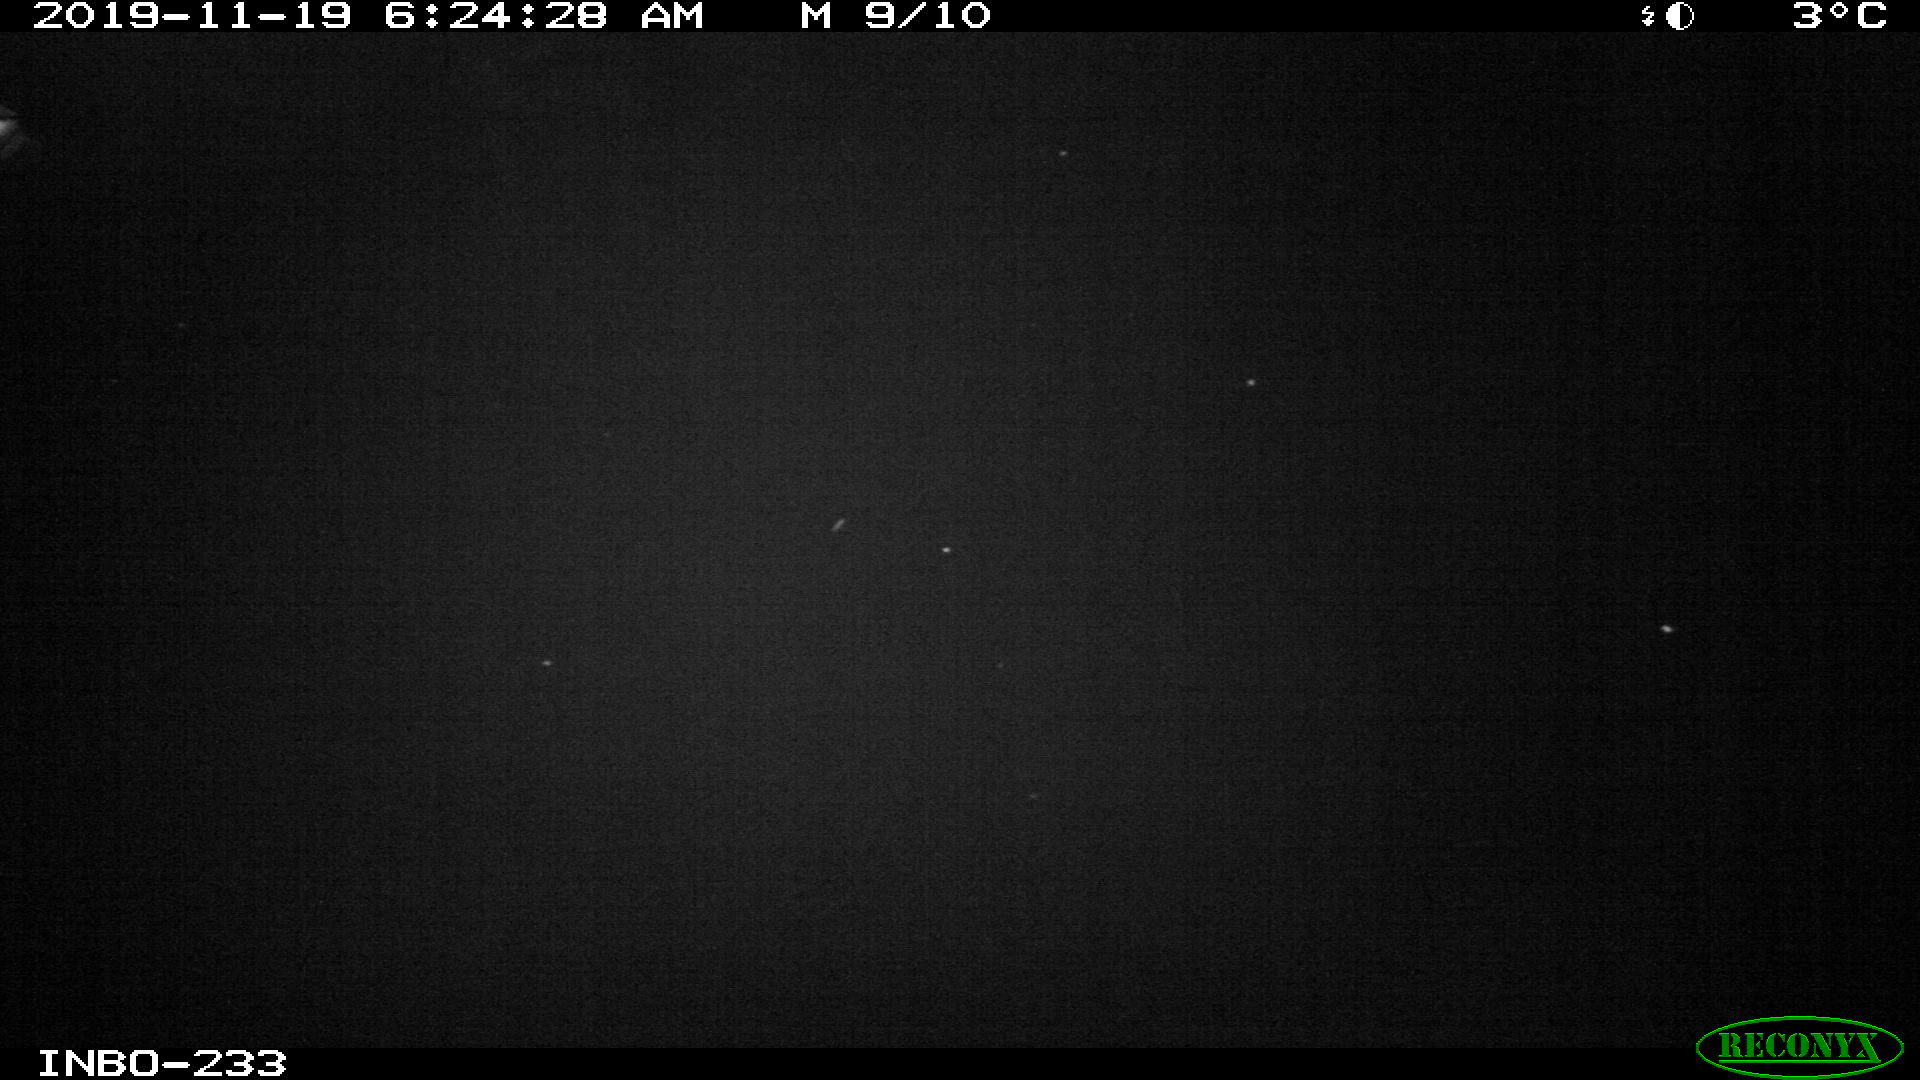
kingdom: Animalia
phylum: Chordata
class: Mammalia
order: Rodentia
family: Muridae
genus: Rattus
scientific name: Rattus norvegicus
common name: Brown rat
